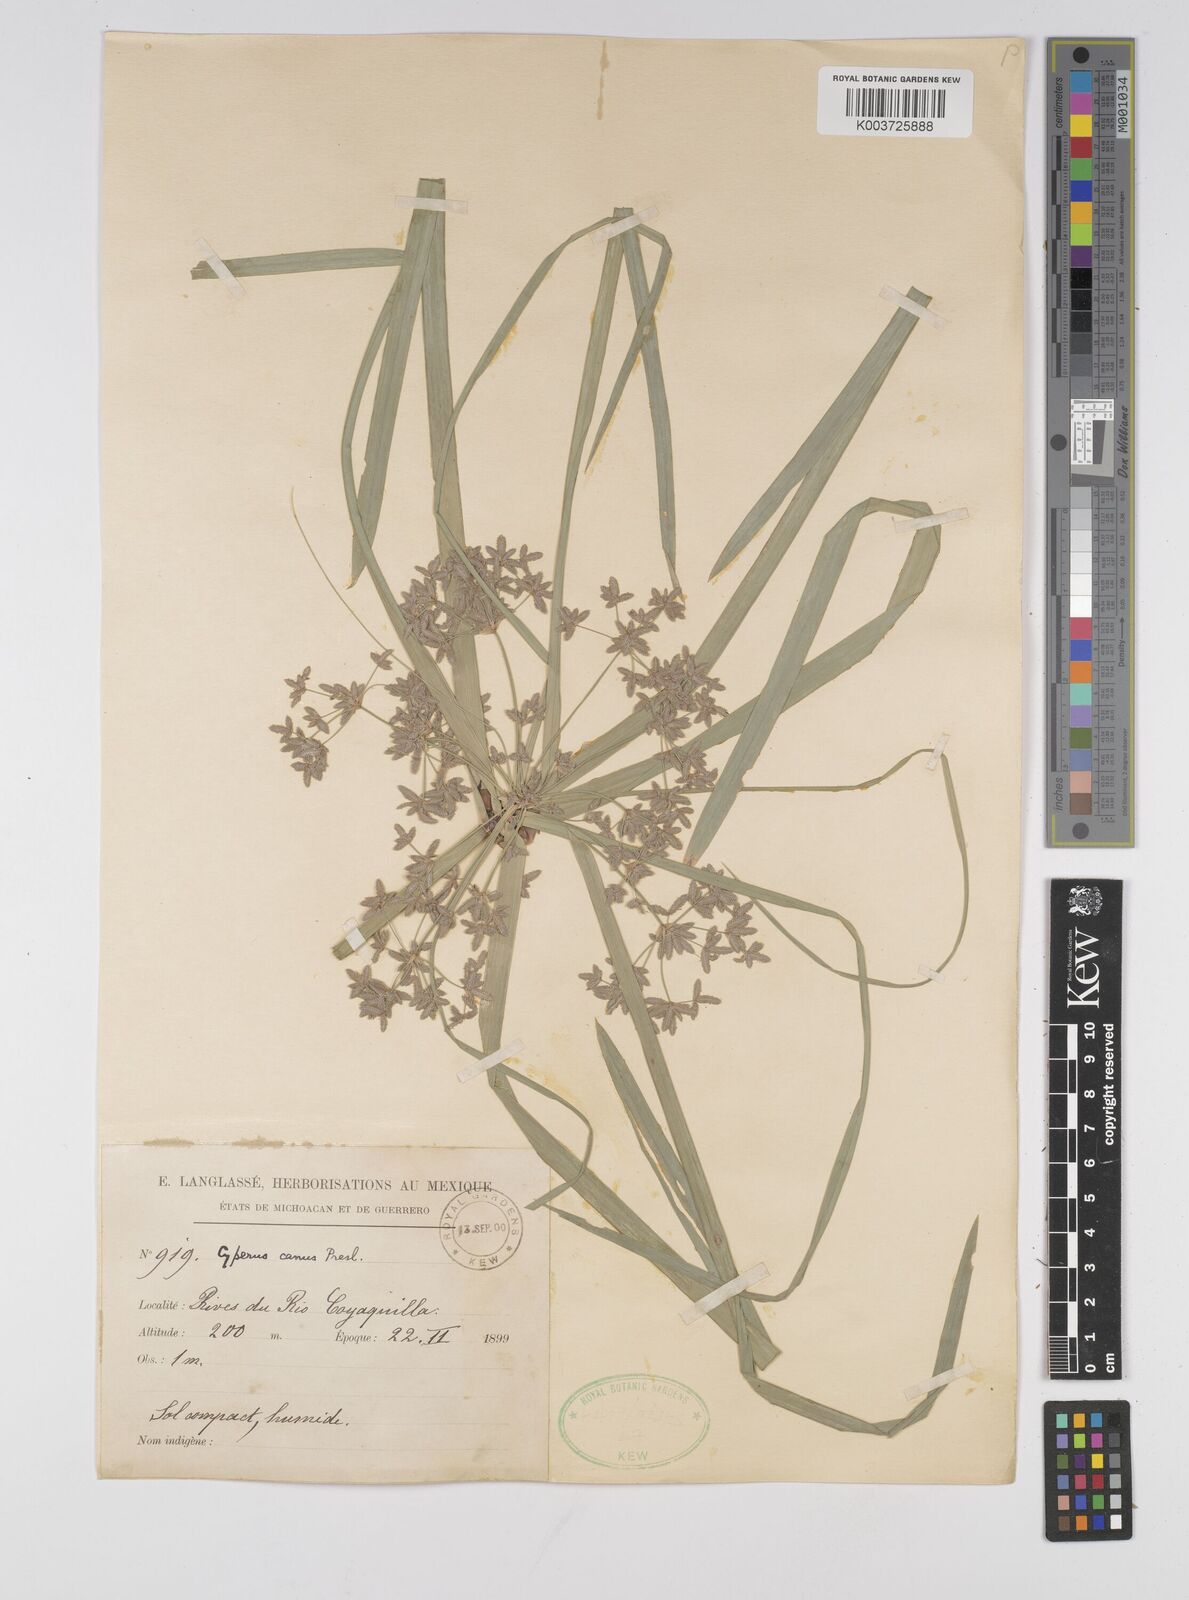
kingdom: Plantae
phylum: Tracheophyta
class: Liliopsida
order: Poales
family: Cyperaceae
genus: Cyperus
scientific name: Cyperus canus
